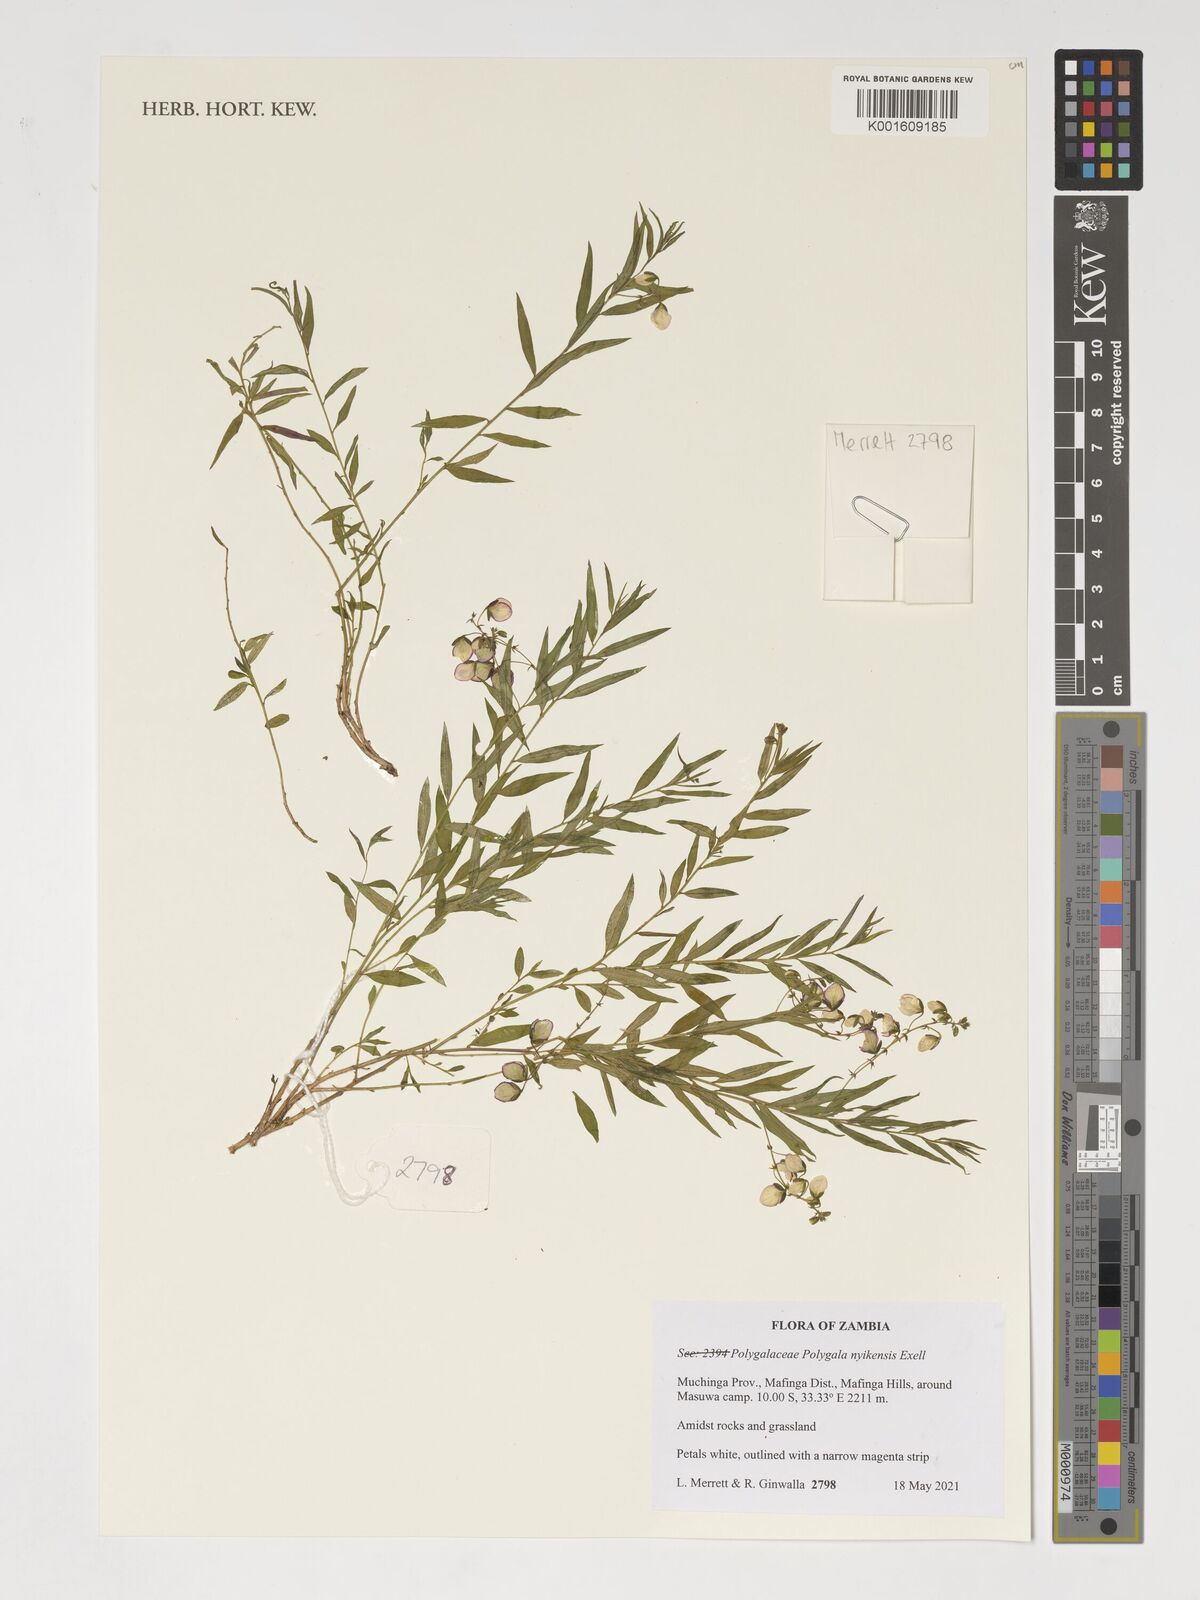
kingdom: Plantae
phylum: Tracheophyta
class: Magnoliopsida
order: Fabales
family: Polygalaceae
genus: Polygala
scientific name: Polygala nyikensis
